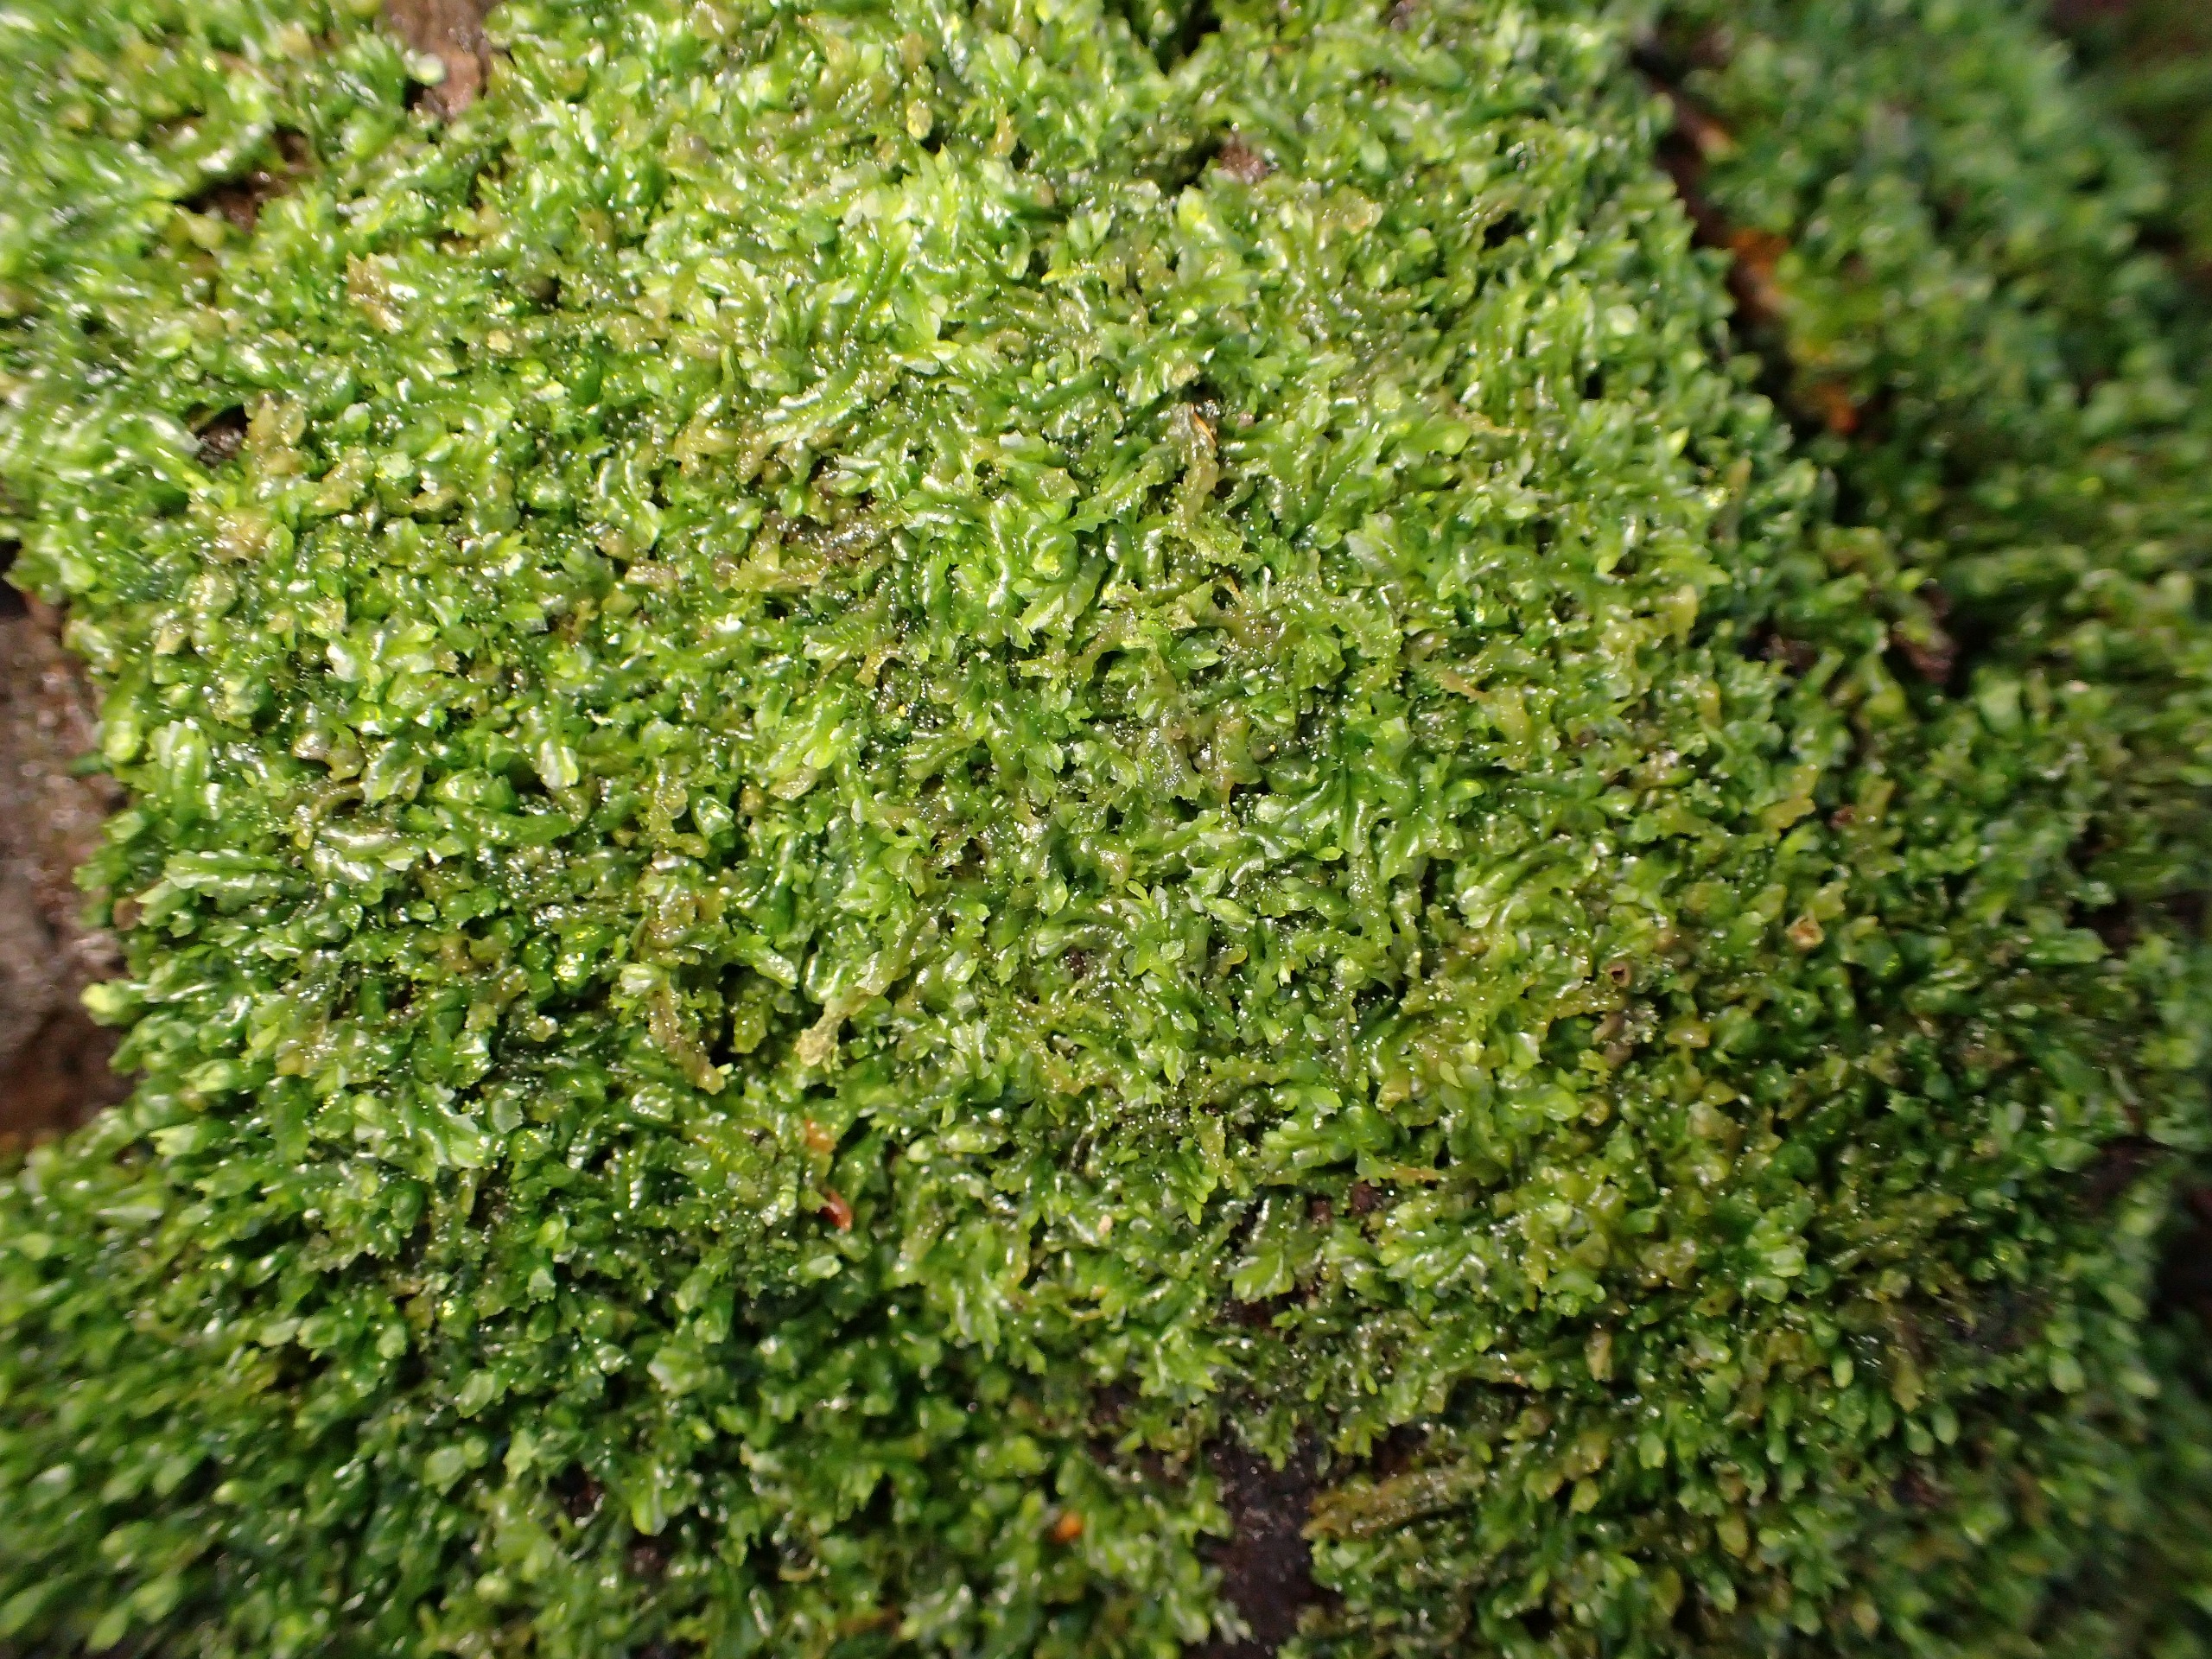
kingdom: Plantae
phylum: Marchantiophyta
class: Jungermanniopsida
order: Jungermanniales
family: Lophocoleaceae
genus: Lophocolea
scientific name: Lophocolea heterophylla
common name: Forskelligbladet kamsvøb
